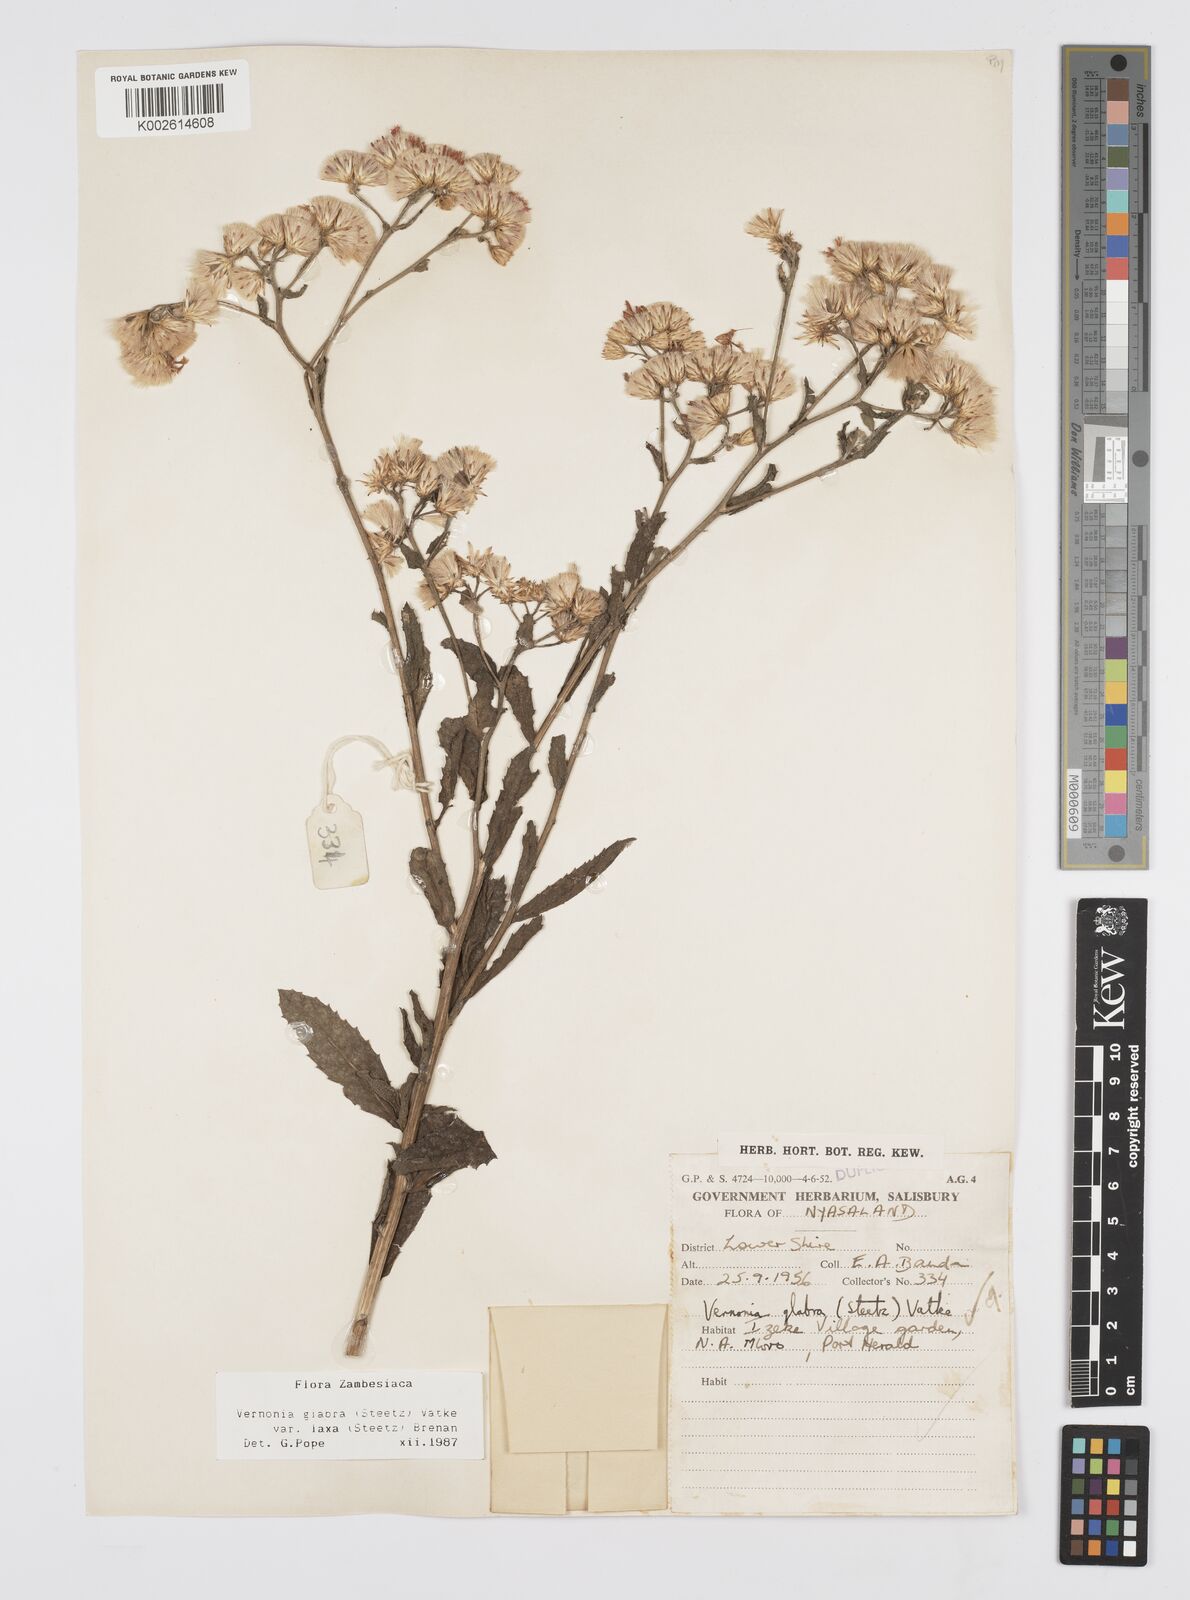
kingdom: Plantae
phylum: Tracheophyta
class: Magnoliopsida
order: Asterales
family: Asteraceae
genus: Linzia
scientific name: Linzia glabra
